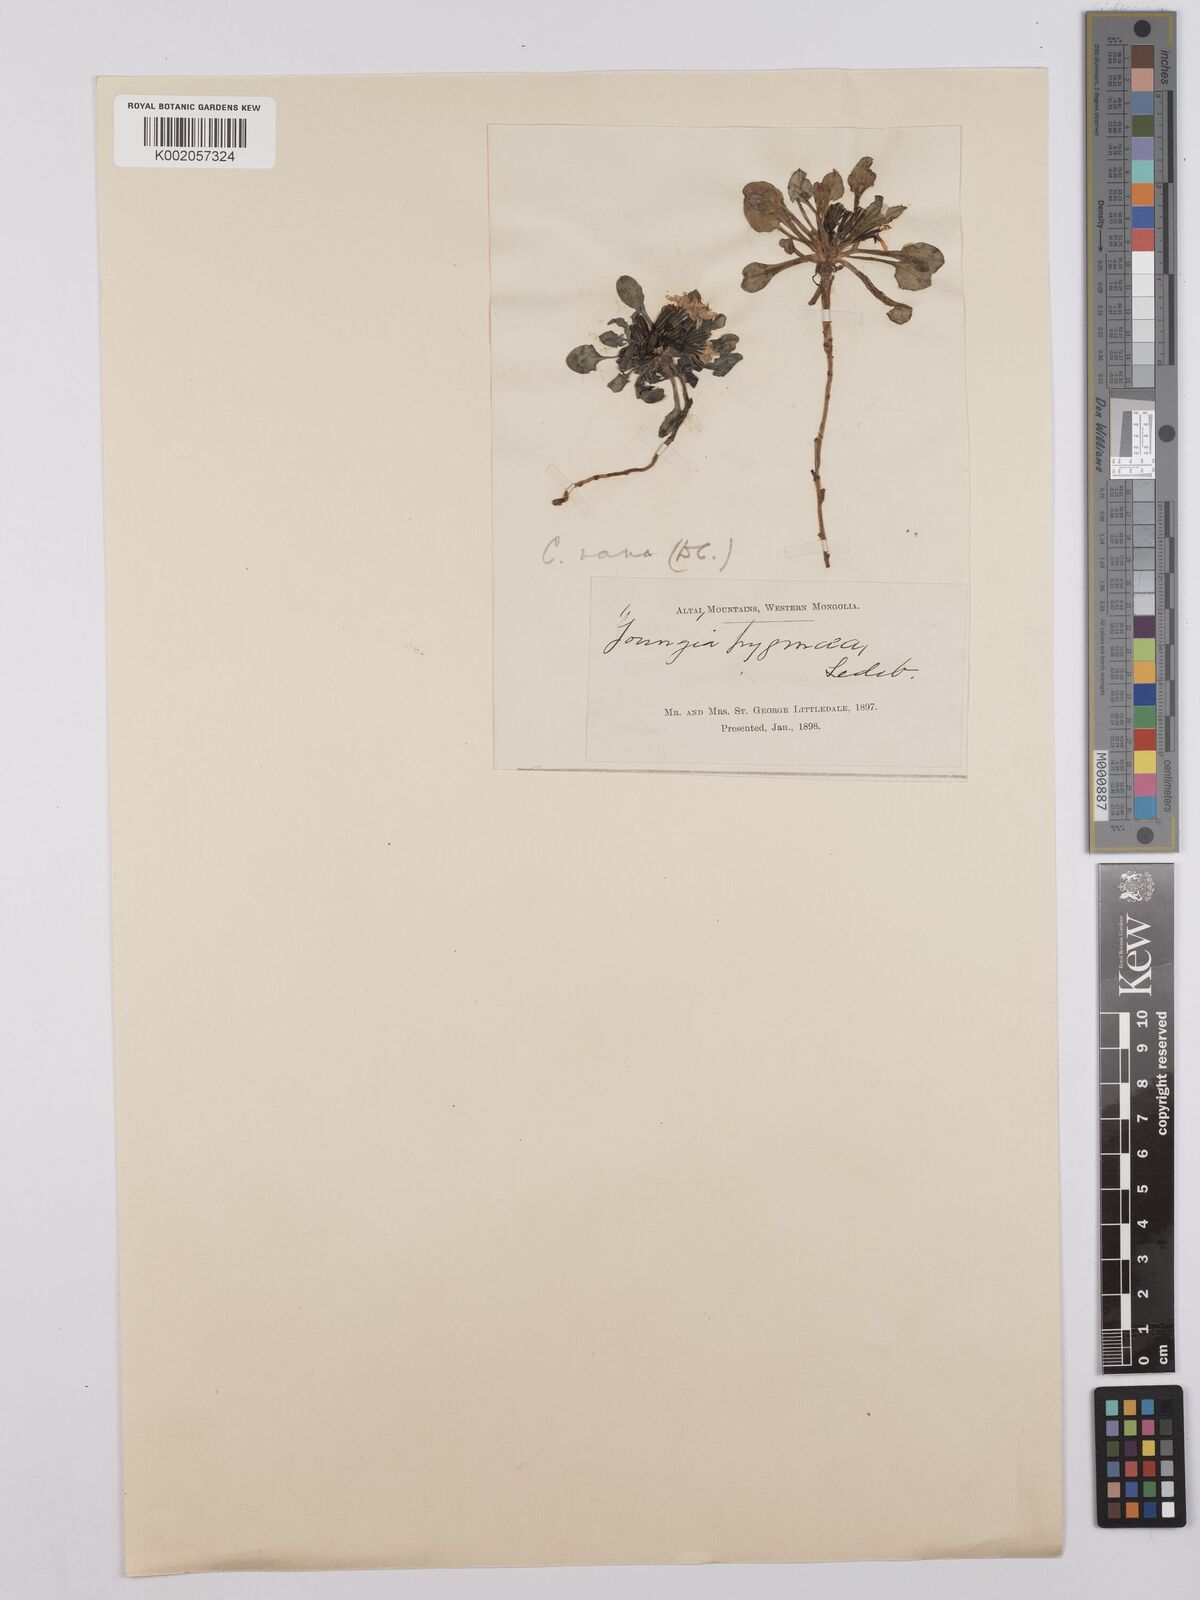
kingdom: Plantae
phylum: Tracheophyta
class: Magnoliopsida
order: Asterales
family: Asteraceae
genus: Askellia
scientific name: Askellia pygmaea
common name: Dwarf alpine hawksbeard
